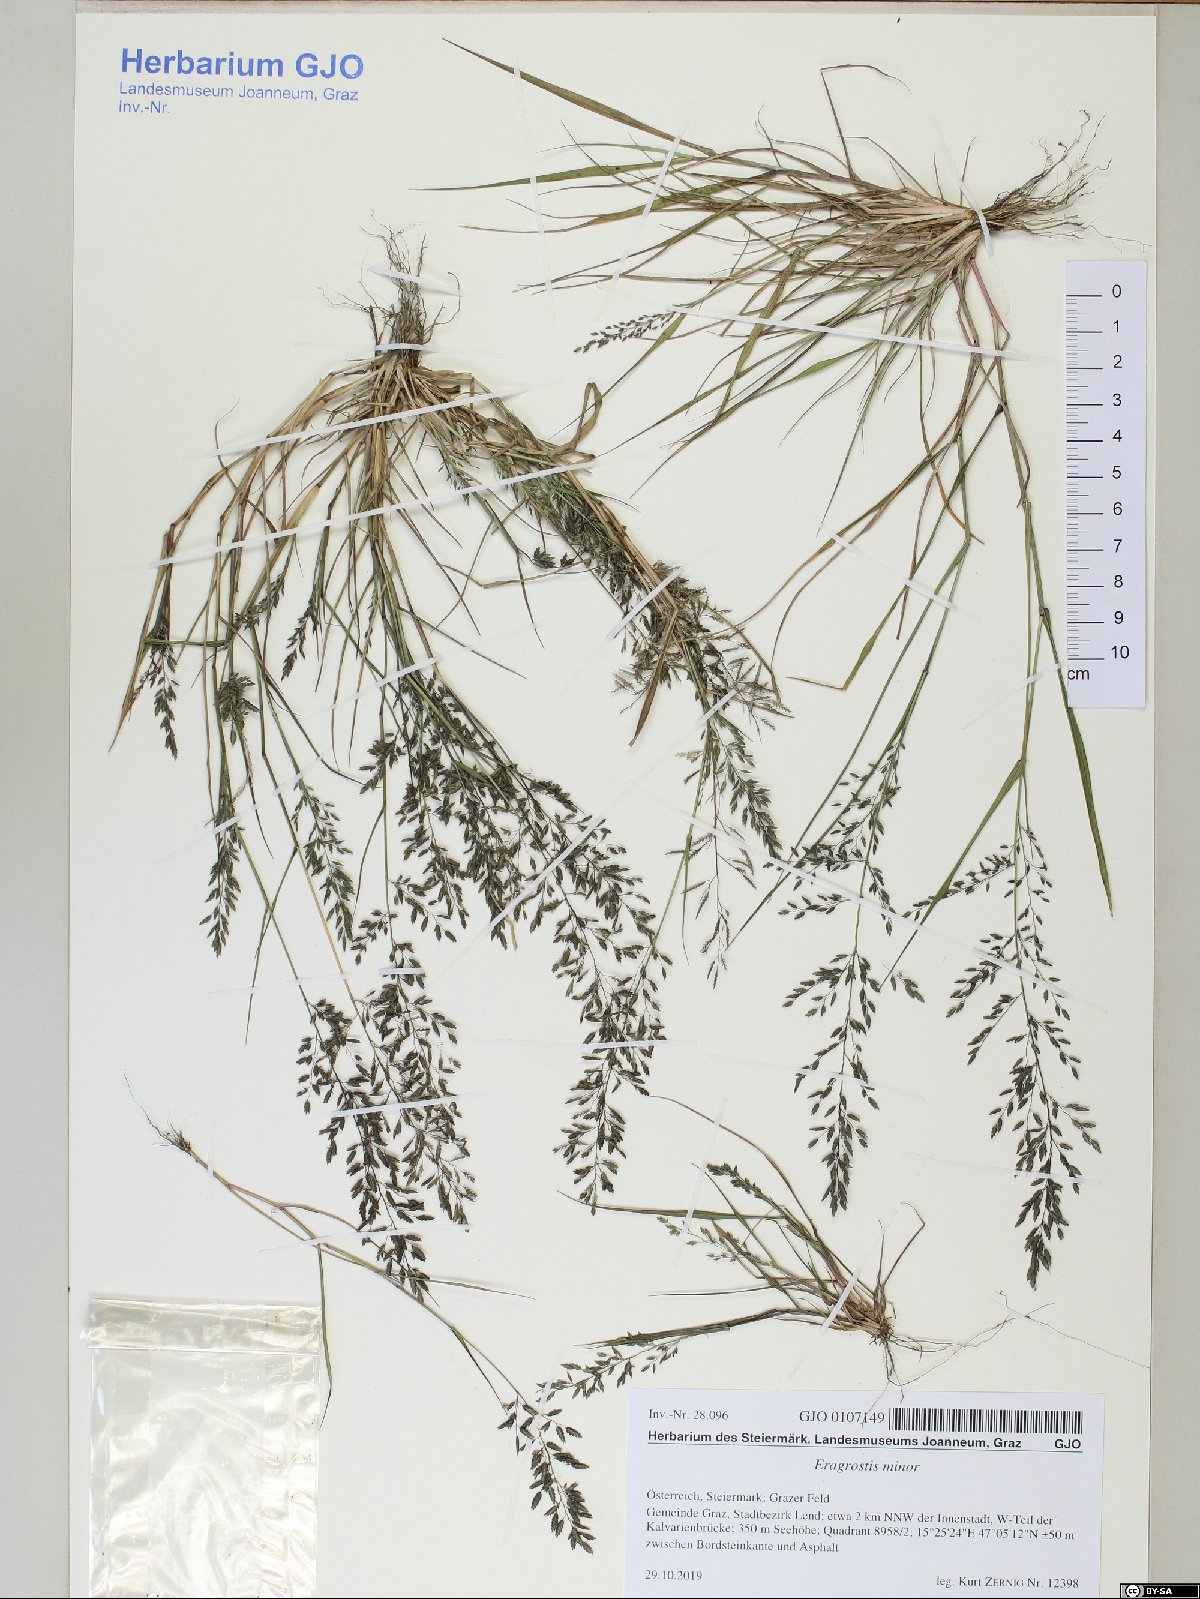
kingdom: Plantae
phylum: Tracheophyta
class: Liliopsida
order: Poales
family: Poaceae
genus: Eragrostis
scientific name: Eragrostis minor
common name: Small love-grass
